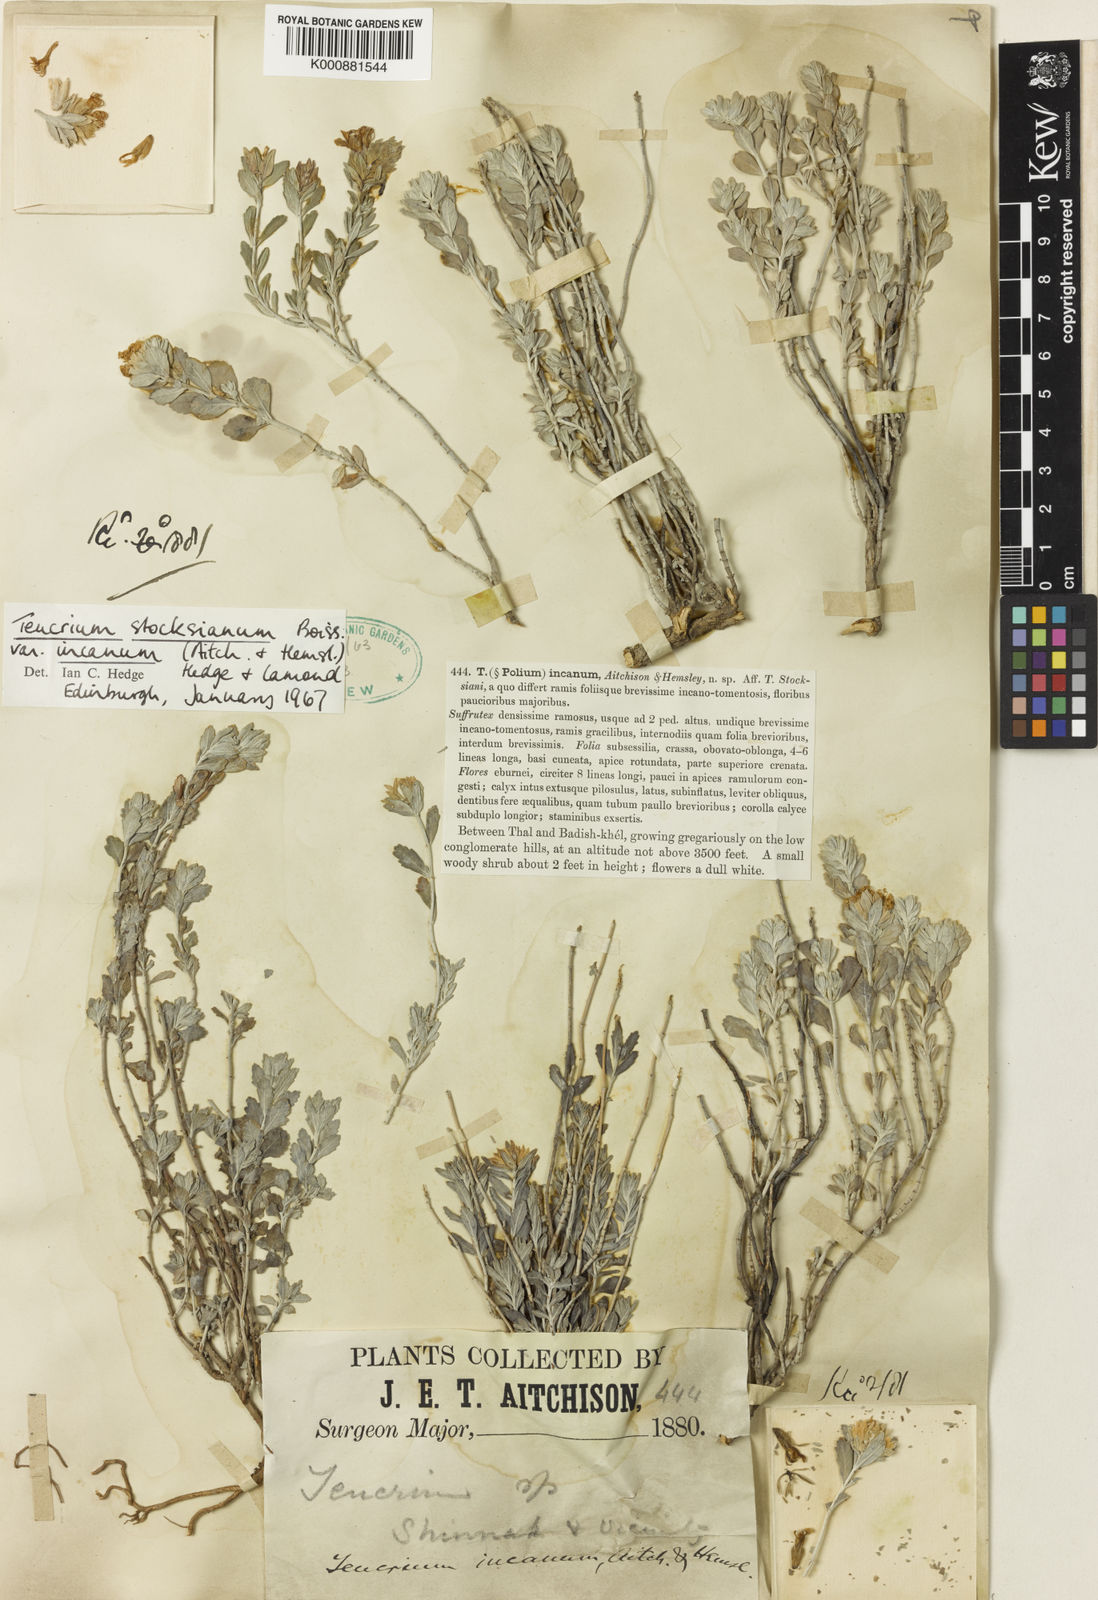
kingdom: Plantae
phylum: Tracheophyta
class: Magnoliopsida
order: Lamiales
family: Lamiaceae
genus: Teucrium
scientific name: Teucrium stocksianum
